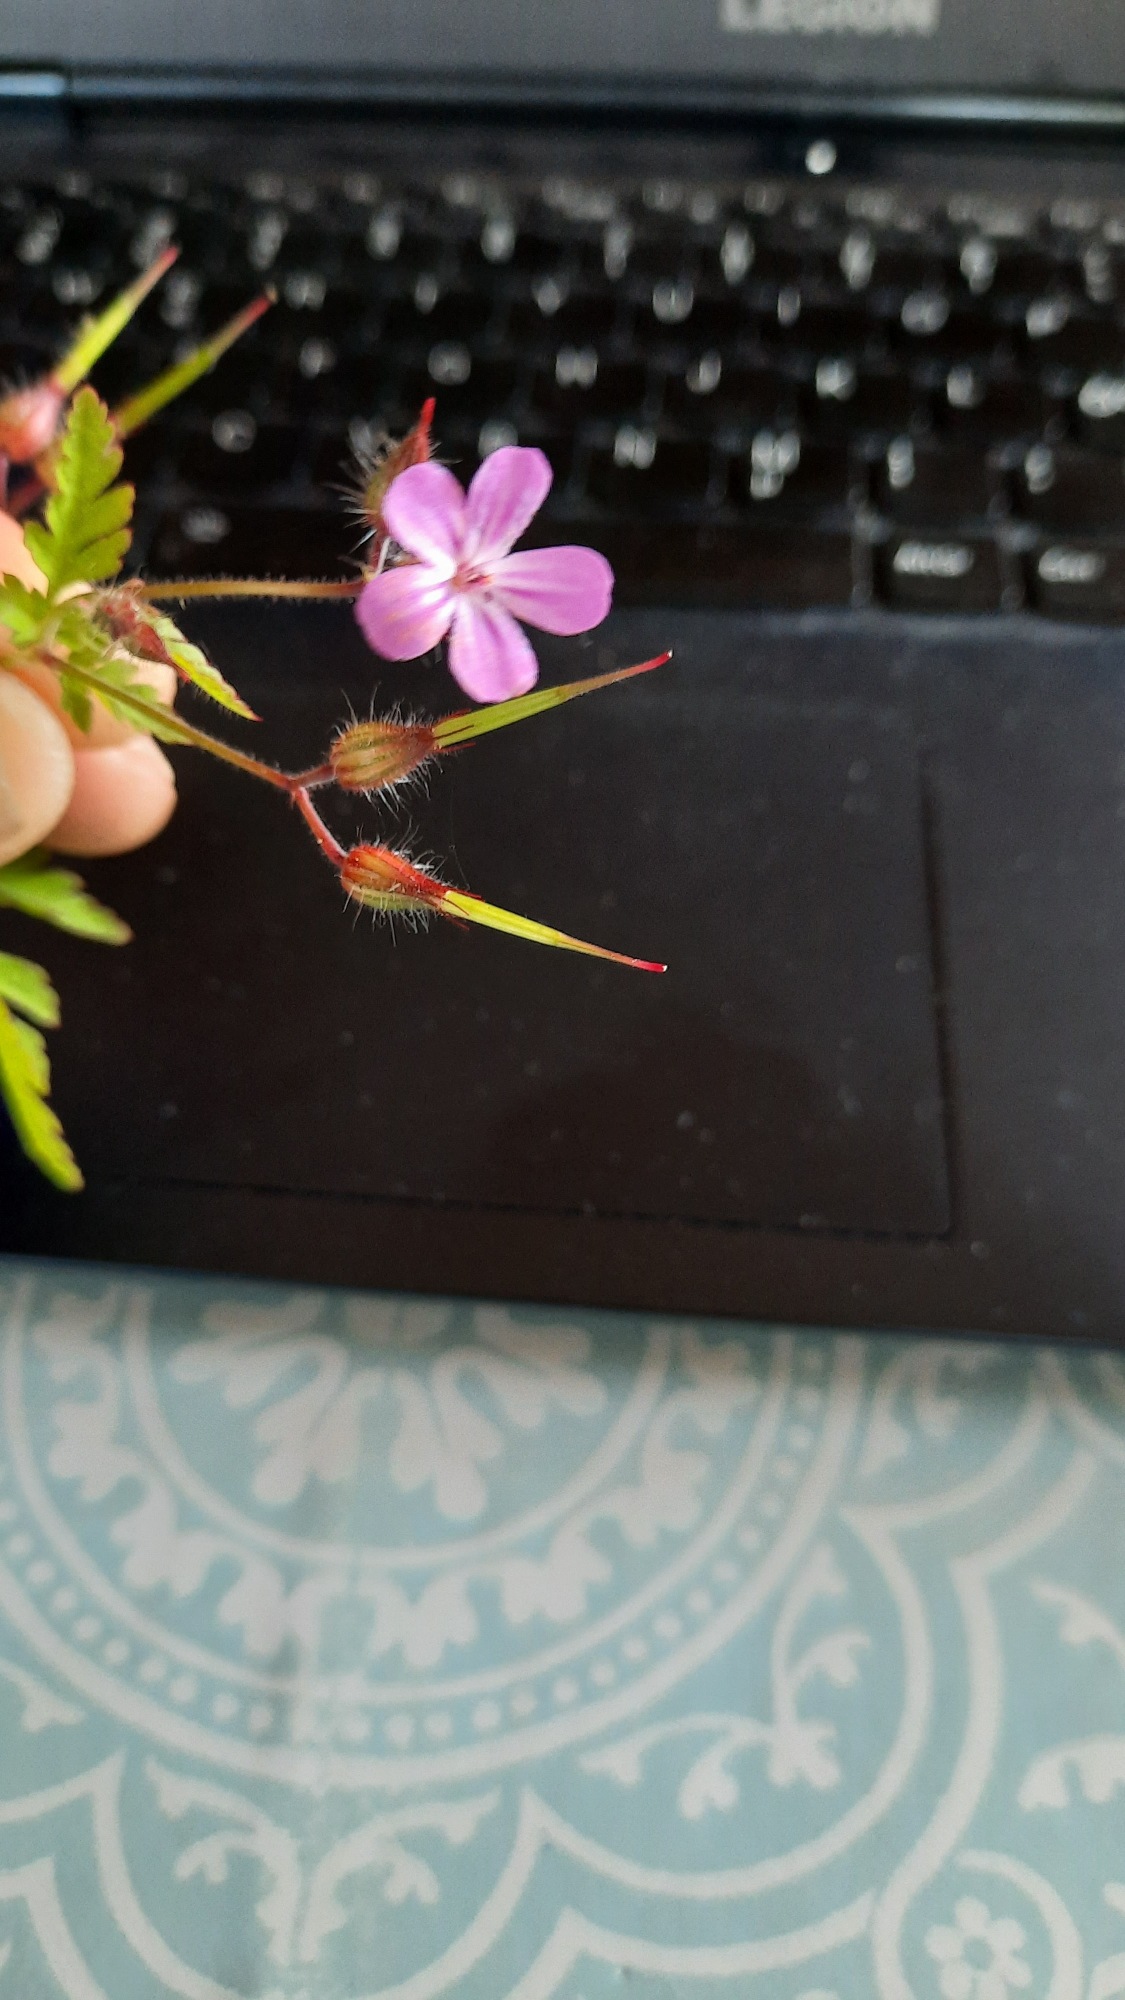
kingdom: Plantae
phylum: Tracheophyta
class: Magnoliopsida
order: Geraniales
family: Geraniaceae
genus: Geranium
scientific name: Geranium robertianum
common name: Stinkende storkenæb
